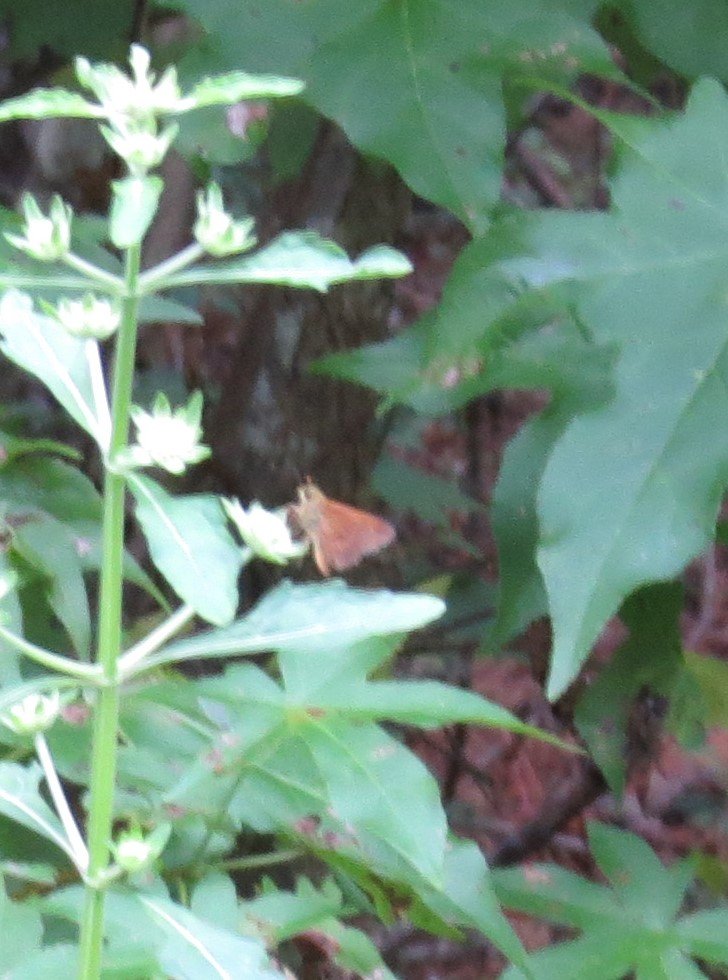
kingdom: Animalia
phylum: Arthropoda
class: Insecta
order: Lepidoptera
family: Hesperiidae
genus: Wallengrenia
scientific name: Wallengrenia otho
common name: Southern Broken-Dash
